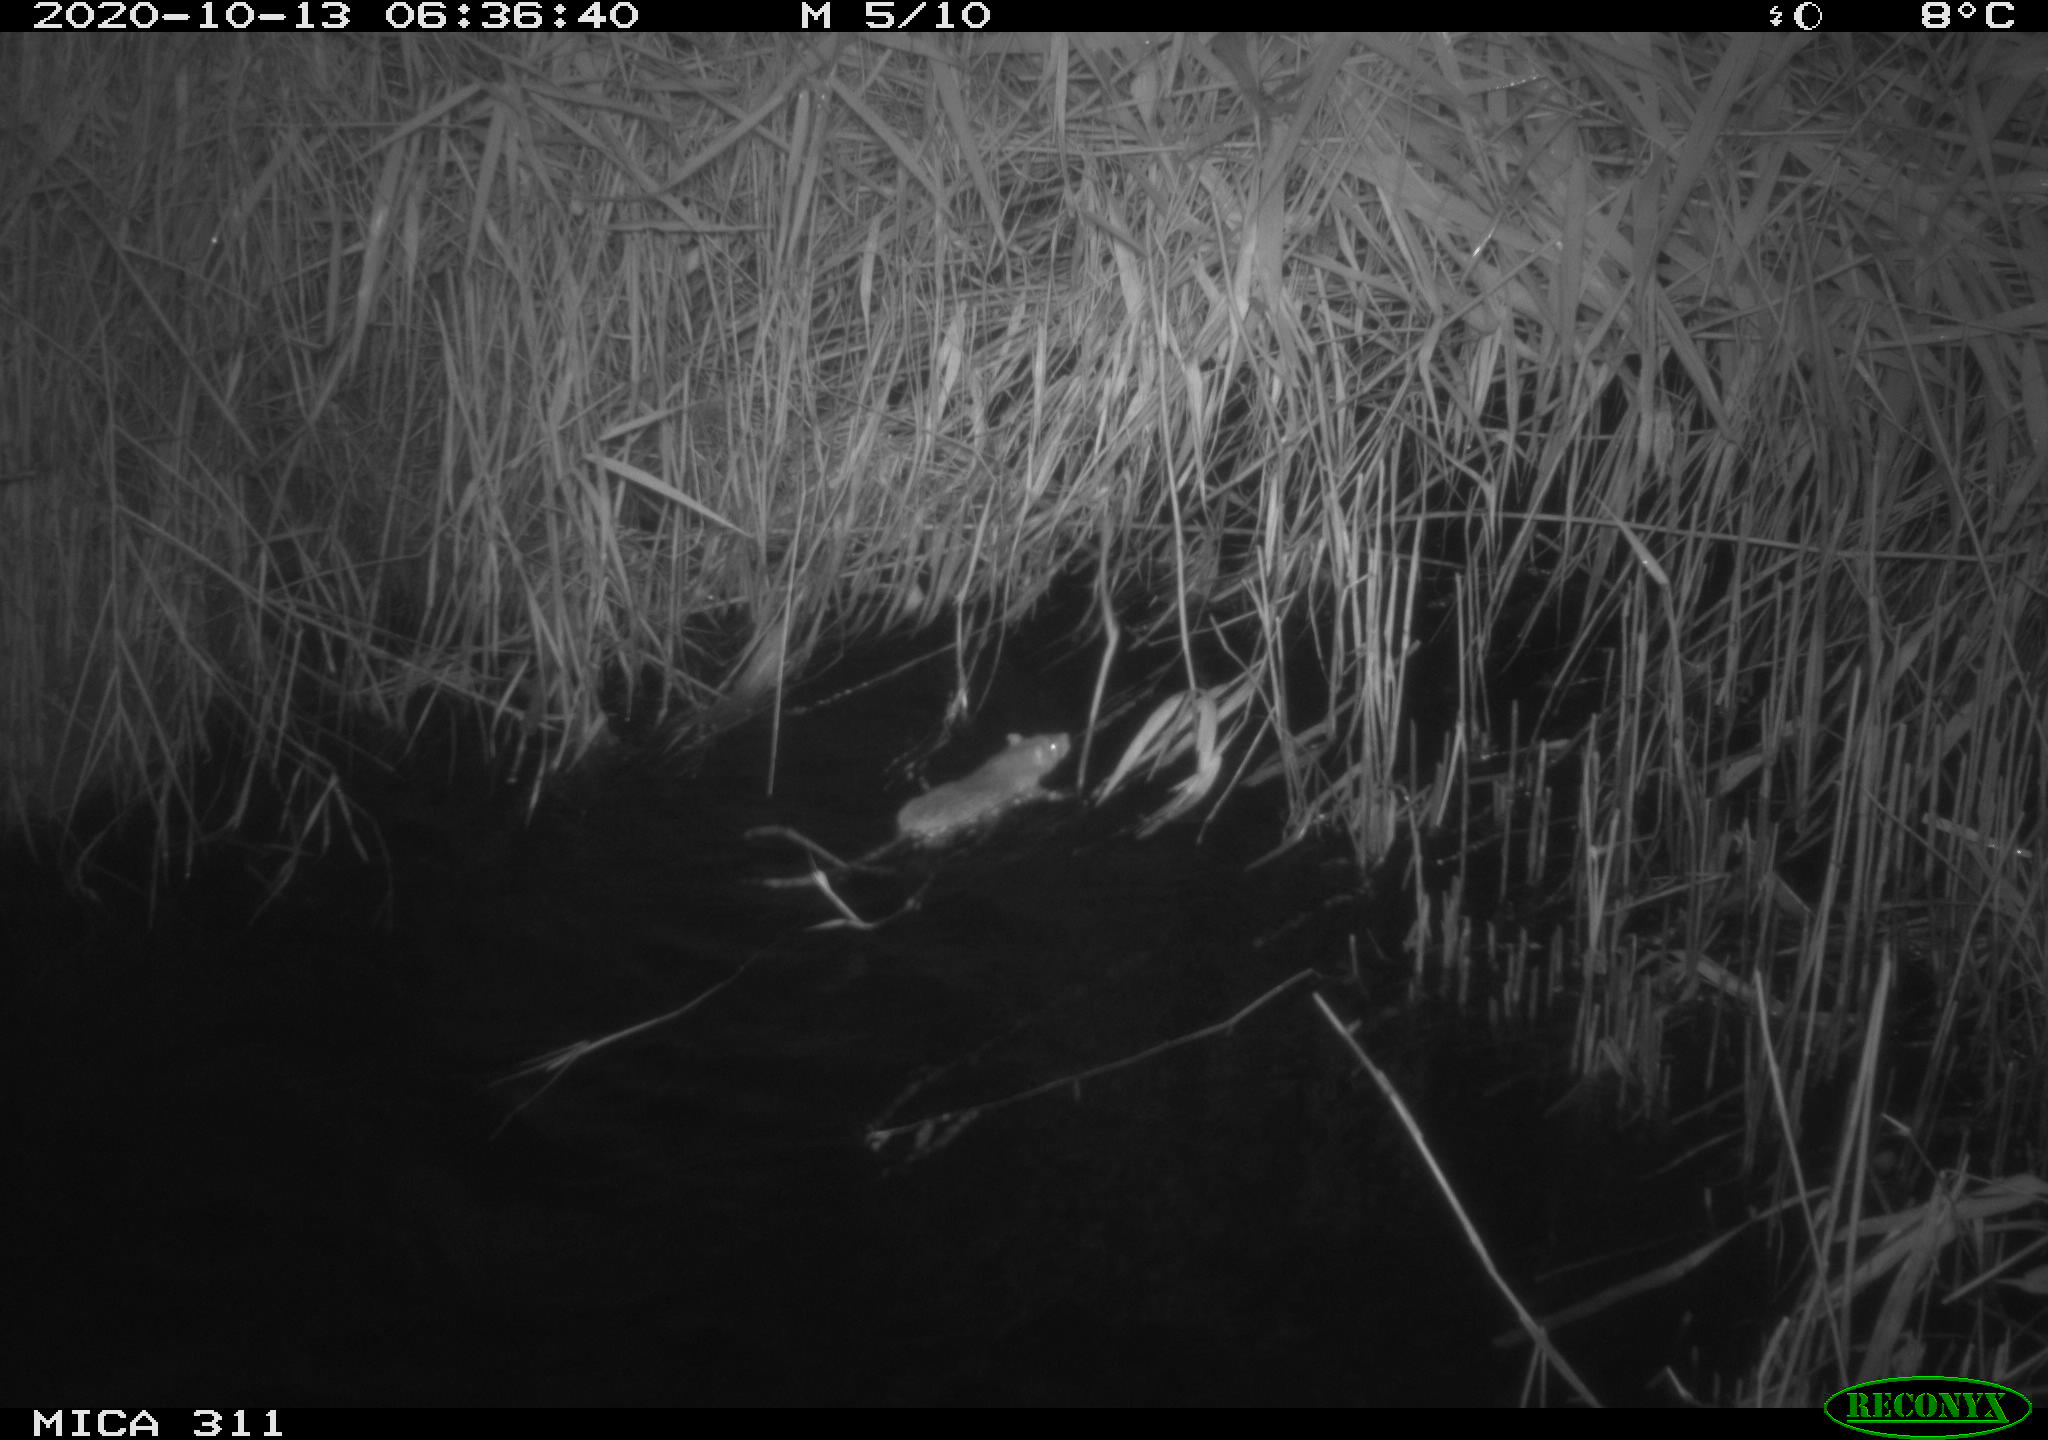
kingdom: Animalia
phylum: Chordata
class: Mammalia
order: Rodentia
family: Muridae
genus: Rattus
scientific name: Rattus norvegicus
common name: Brown rat
